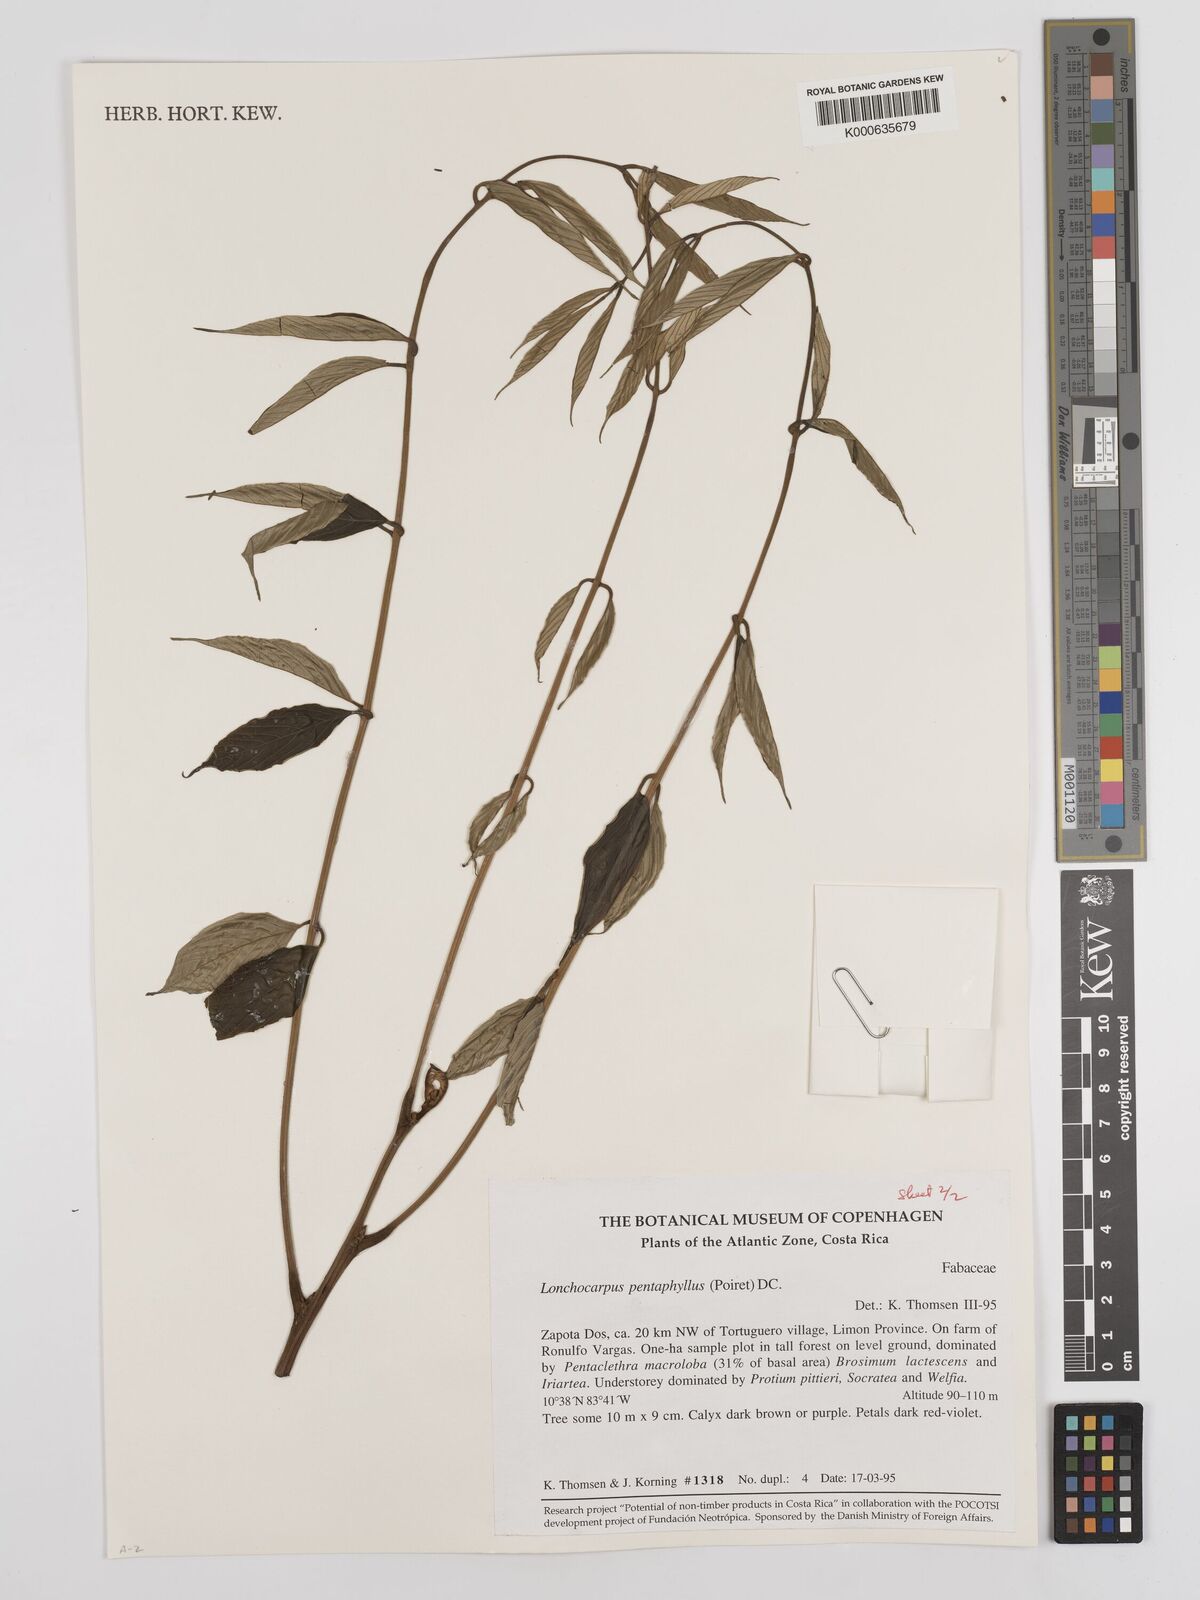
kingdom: Plantae
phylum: Tracheophyta
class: Magnoliopsida
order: Fabales
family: Fabaceae
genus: Lonchocarpus
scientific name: Lonchocarpus
